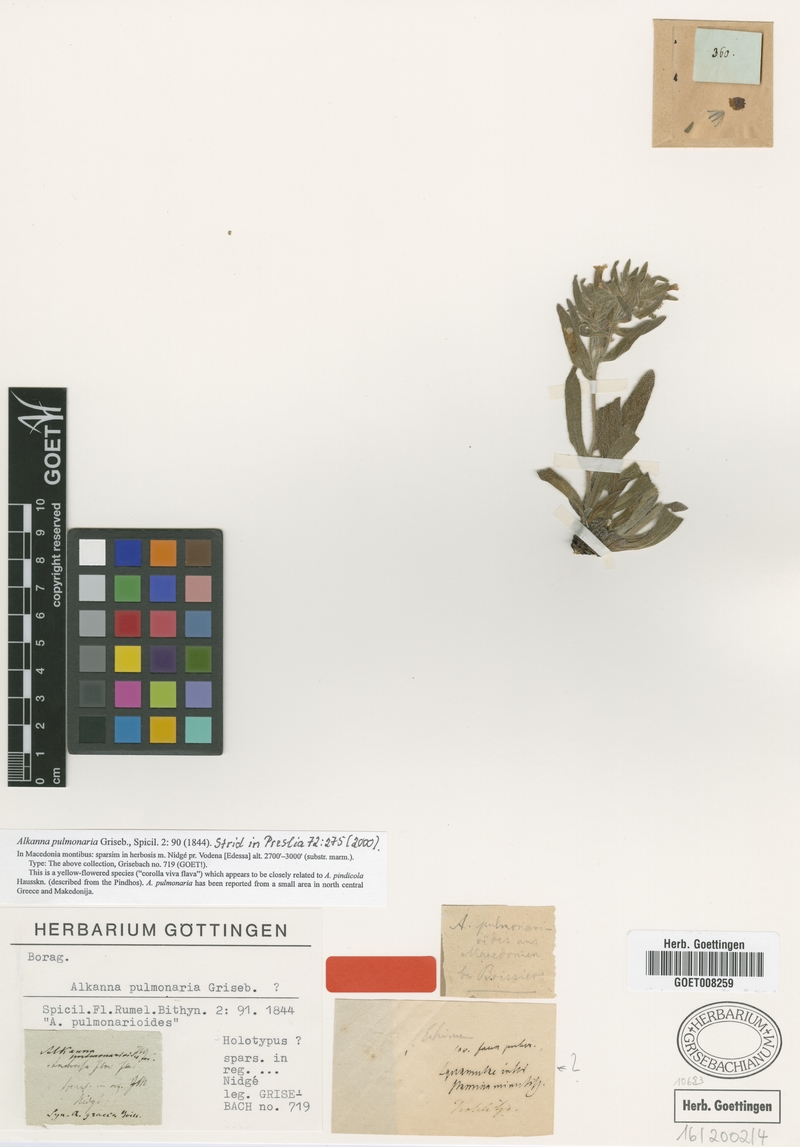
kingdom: Plantae
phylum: Tracheophyta
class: Magnoliopsida
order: Boraginales
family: Boraginaceae
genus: Alkanna
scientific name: Alkanna pulmonaria
